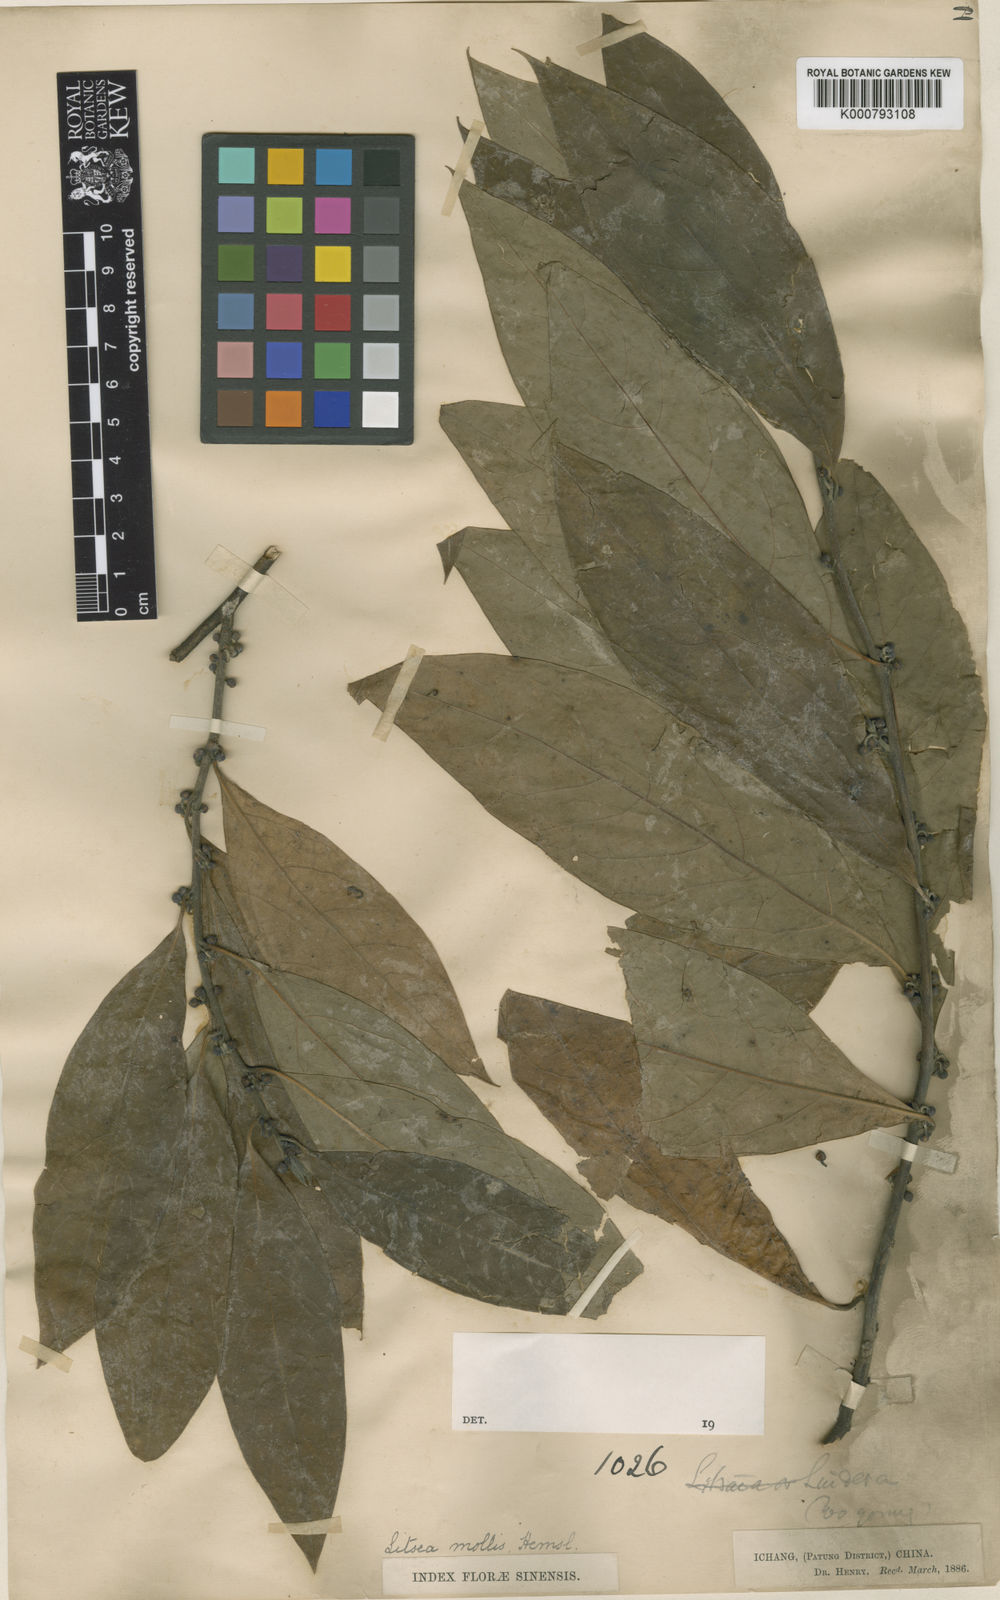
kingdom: Plantae
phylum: Tracheophyta
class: Magnoliopsida
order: Laurales
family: Lauraceae
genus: Litsea
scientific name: Litsea euosma
